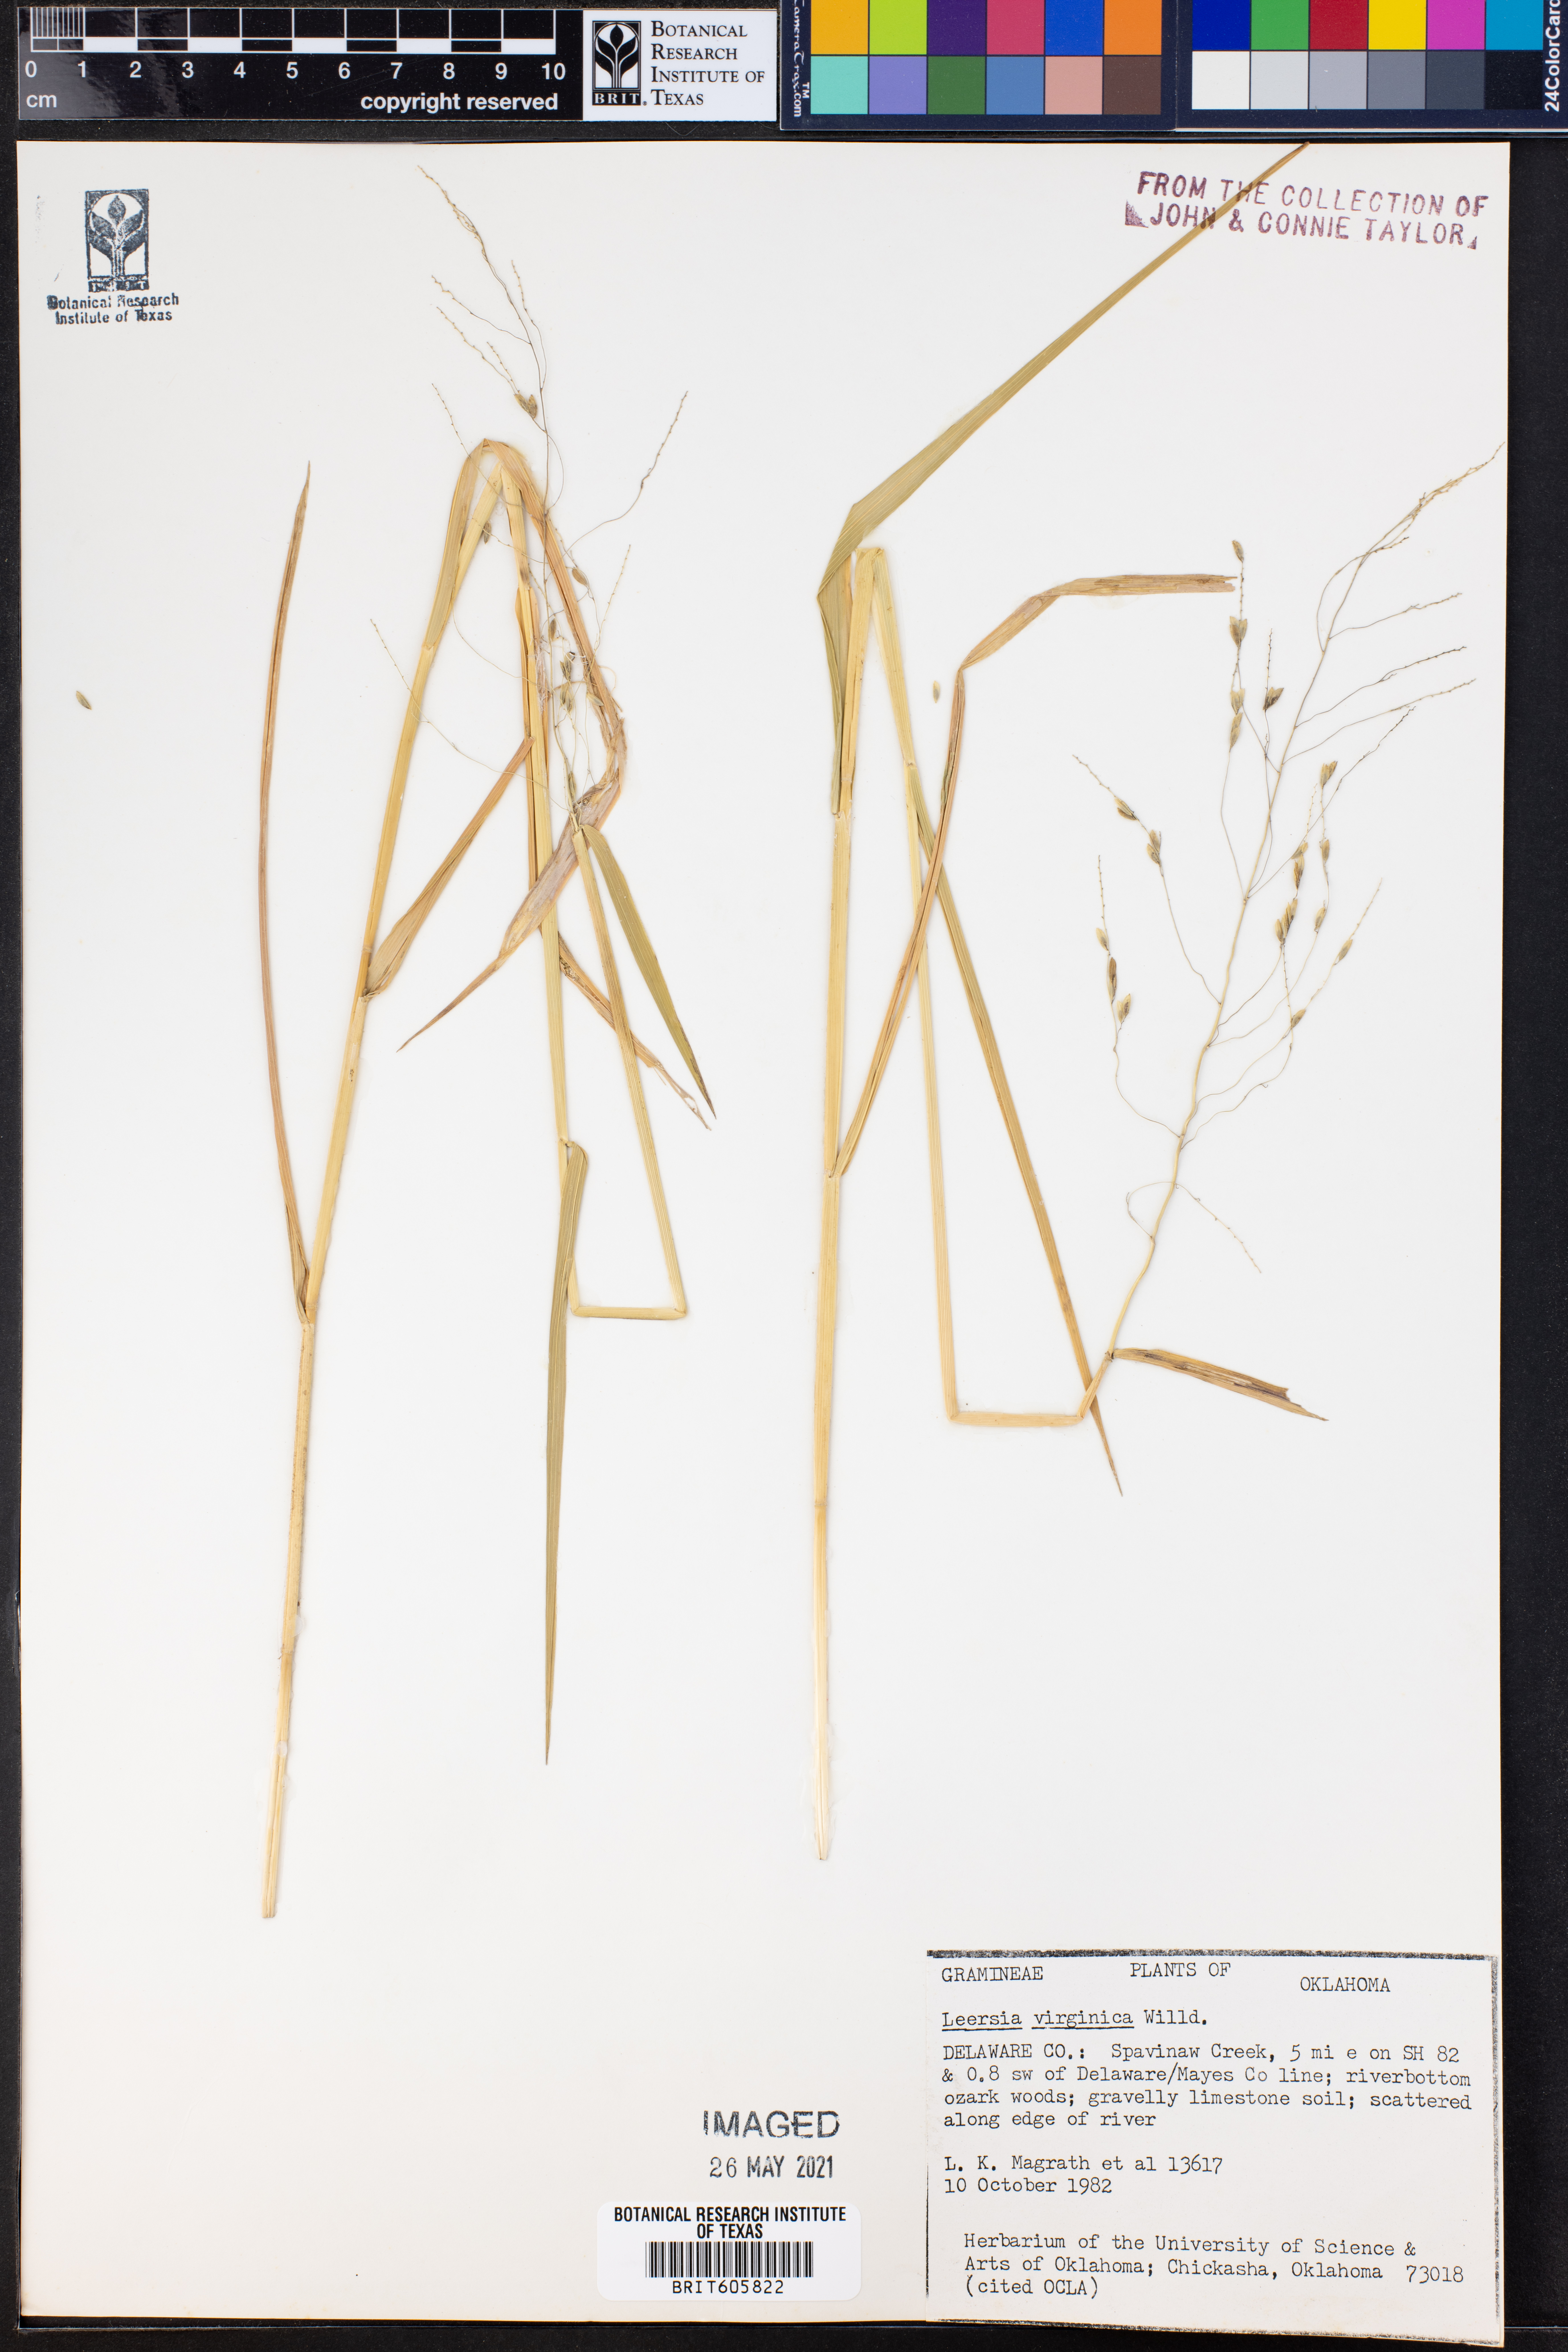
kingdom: Plantae
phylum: Tracheophyta
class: Liliopsida
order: Poales
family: Poaceae
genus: Leersia
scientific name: Leersia virginica
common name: White cutgrass
